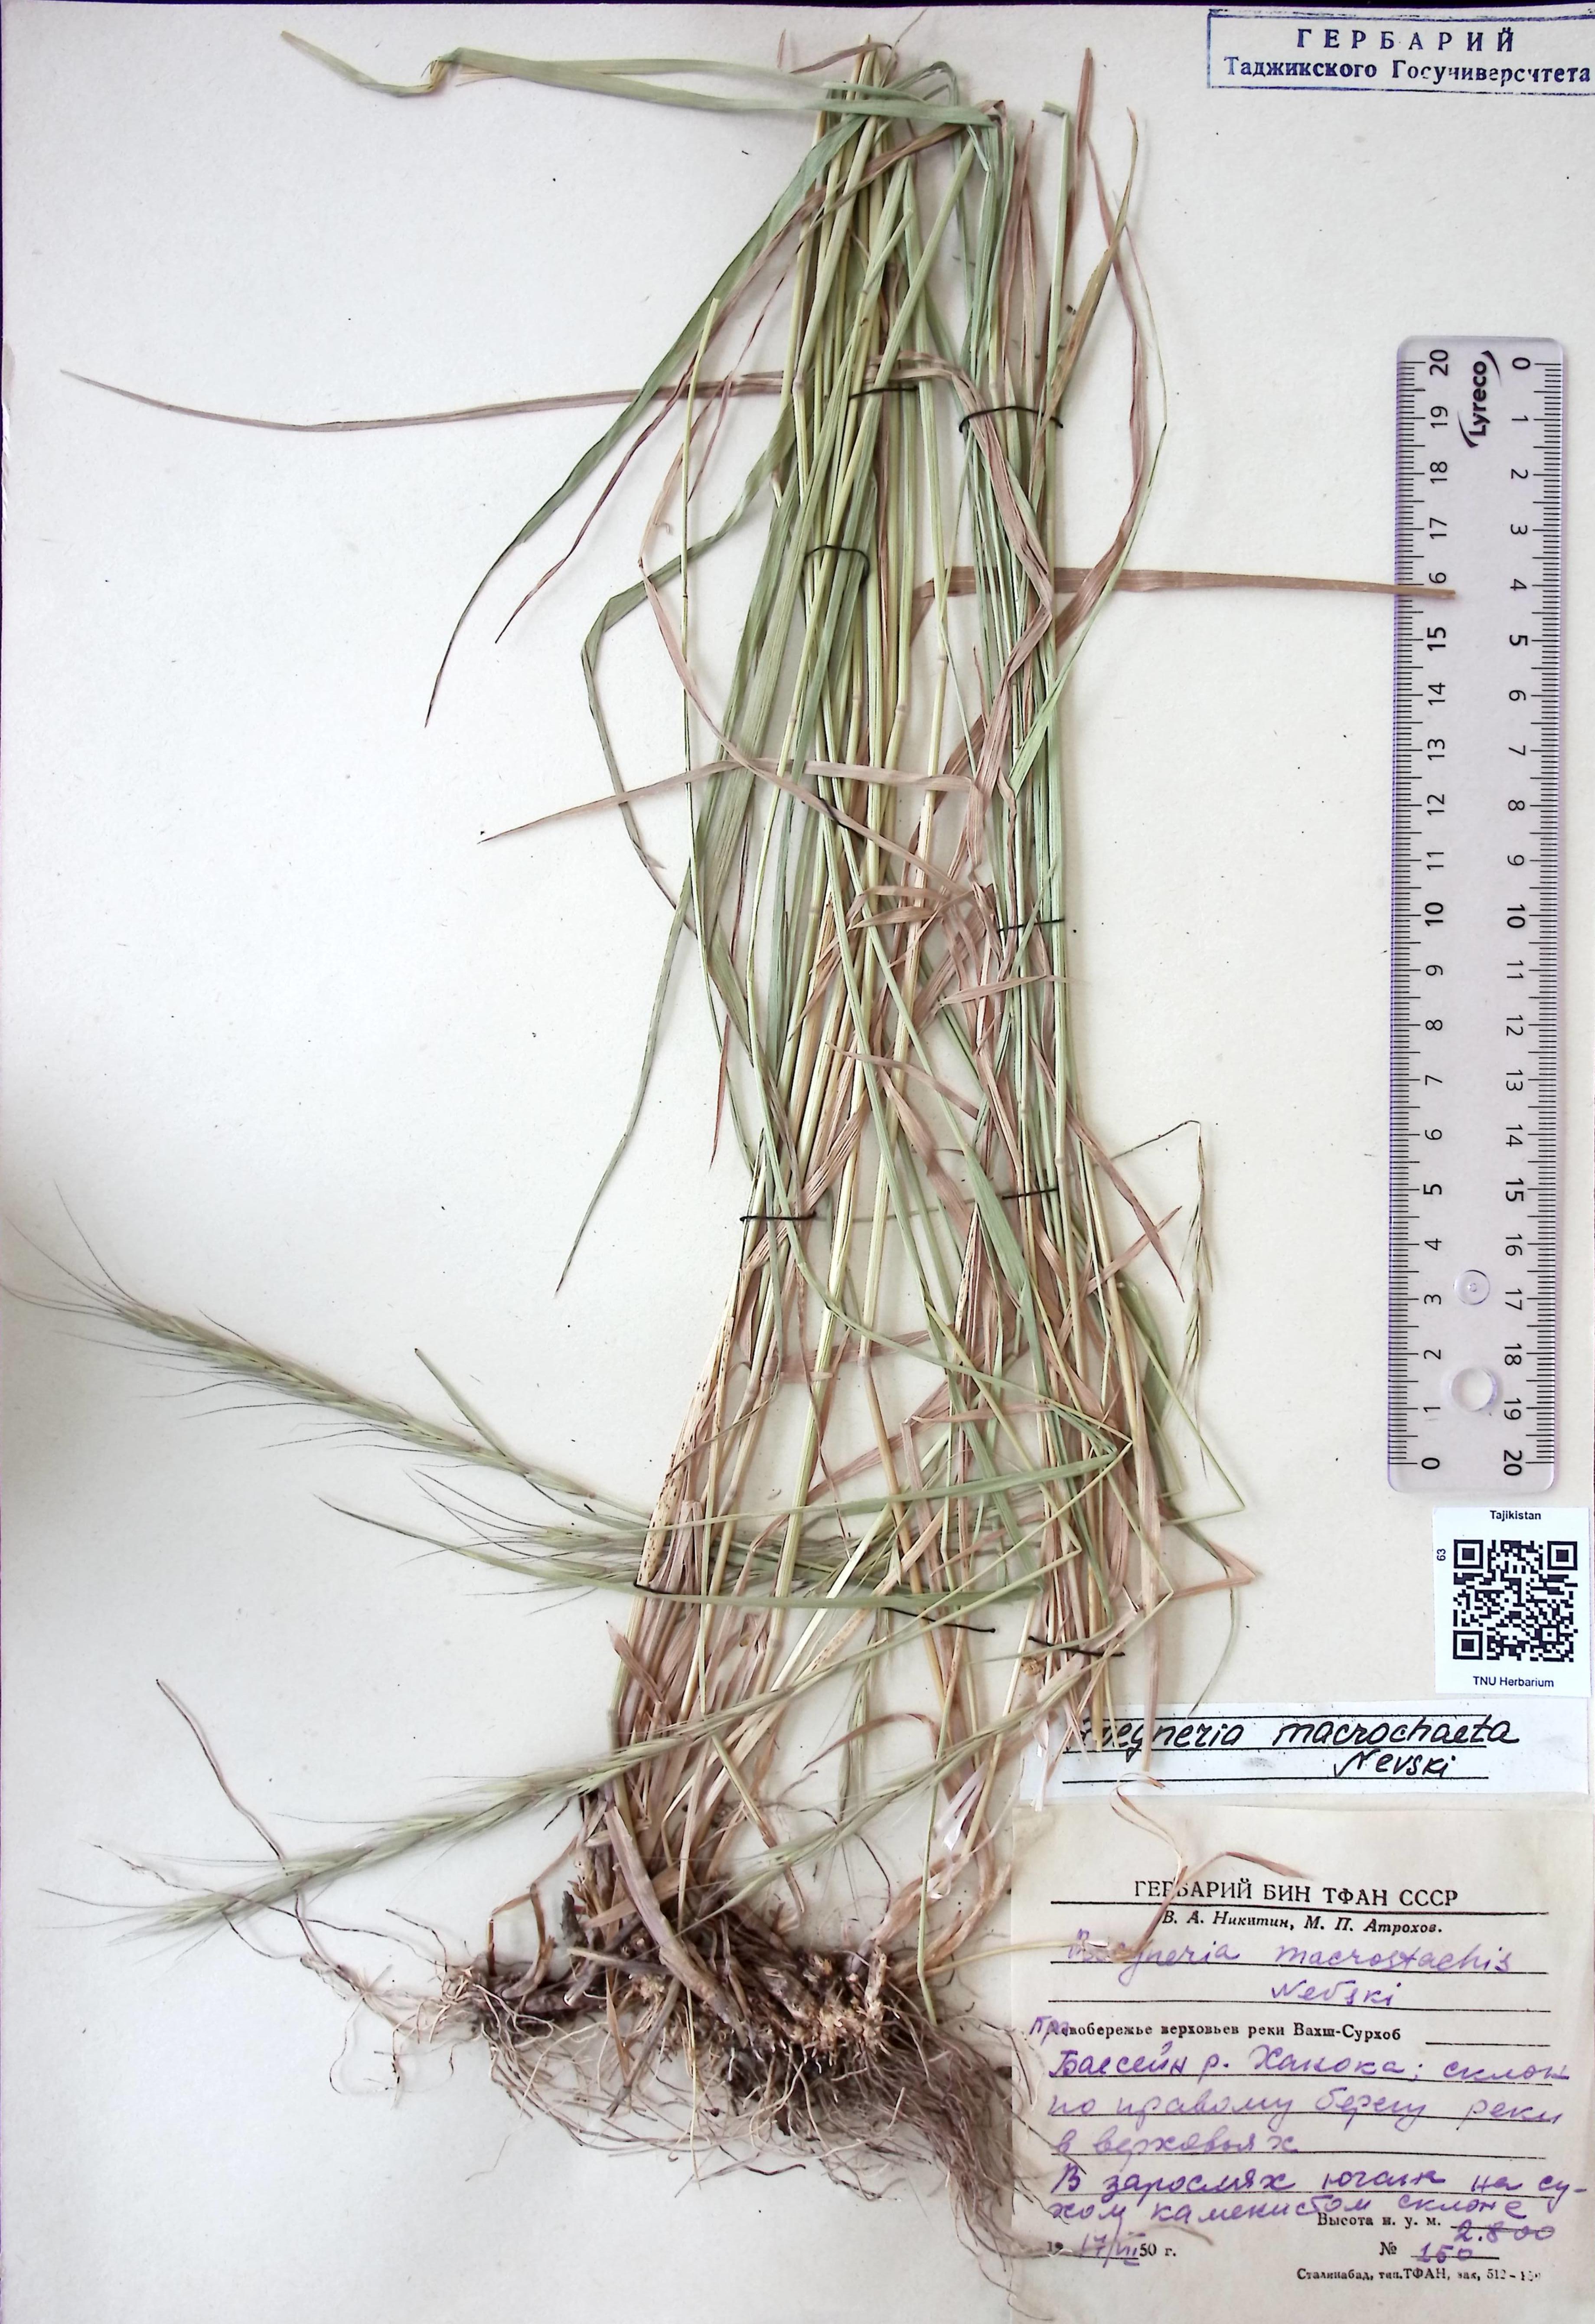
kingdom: Plantae
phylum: Tracheophyta
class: Liliopsida
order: Poales
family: Poaceae
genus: Elymus
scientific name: Elymus macrochaetus
